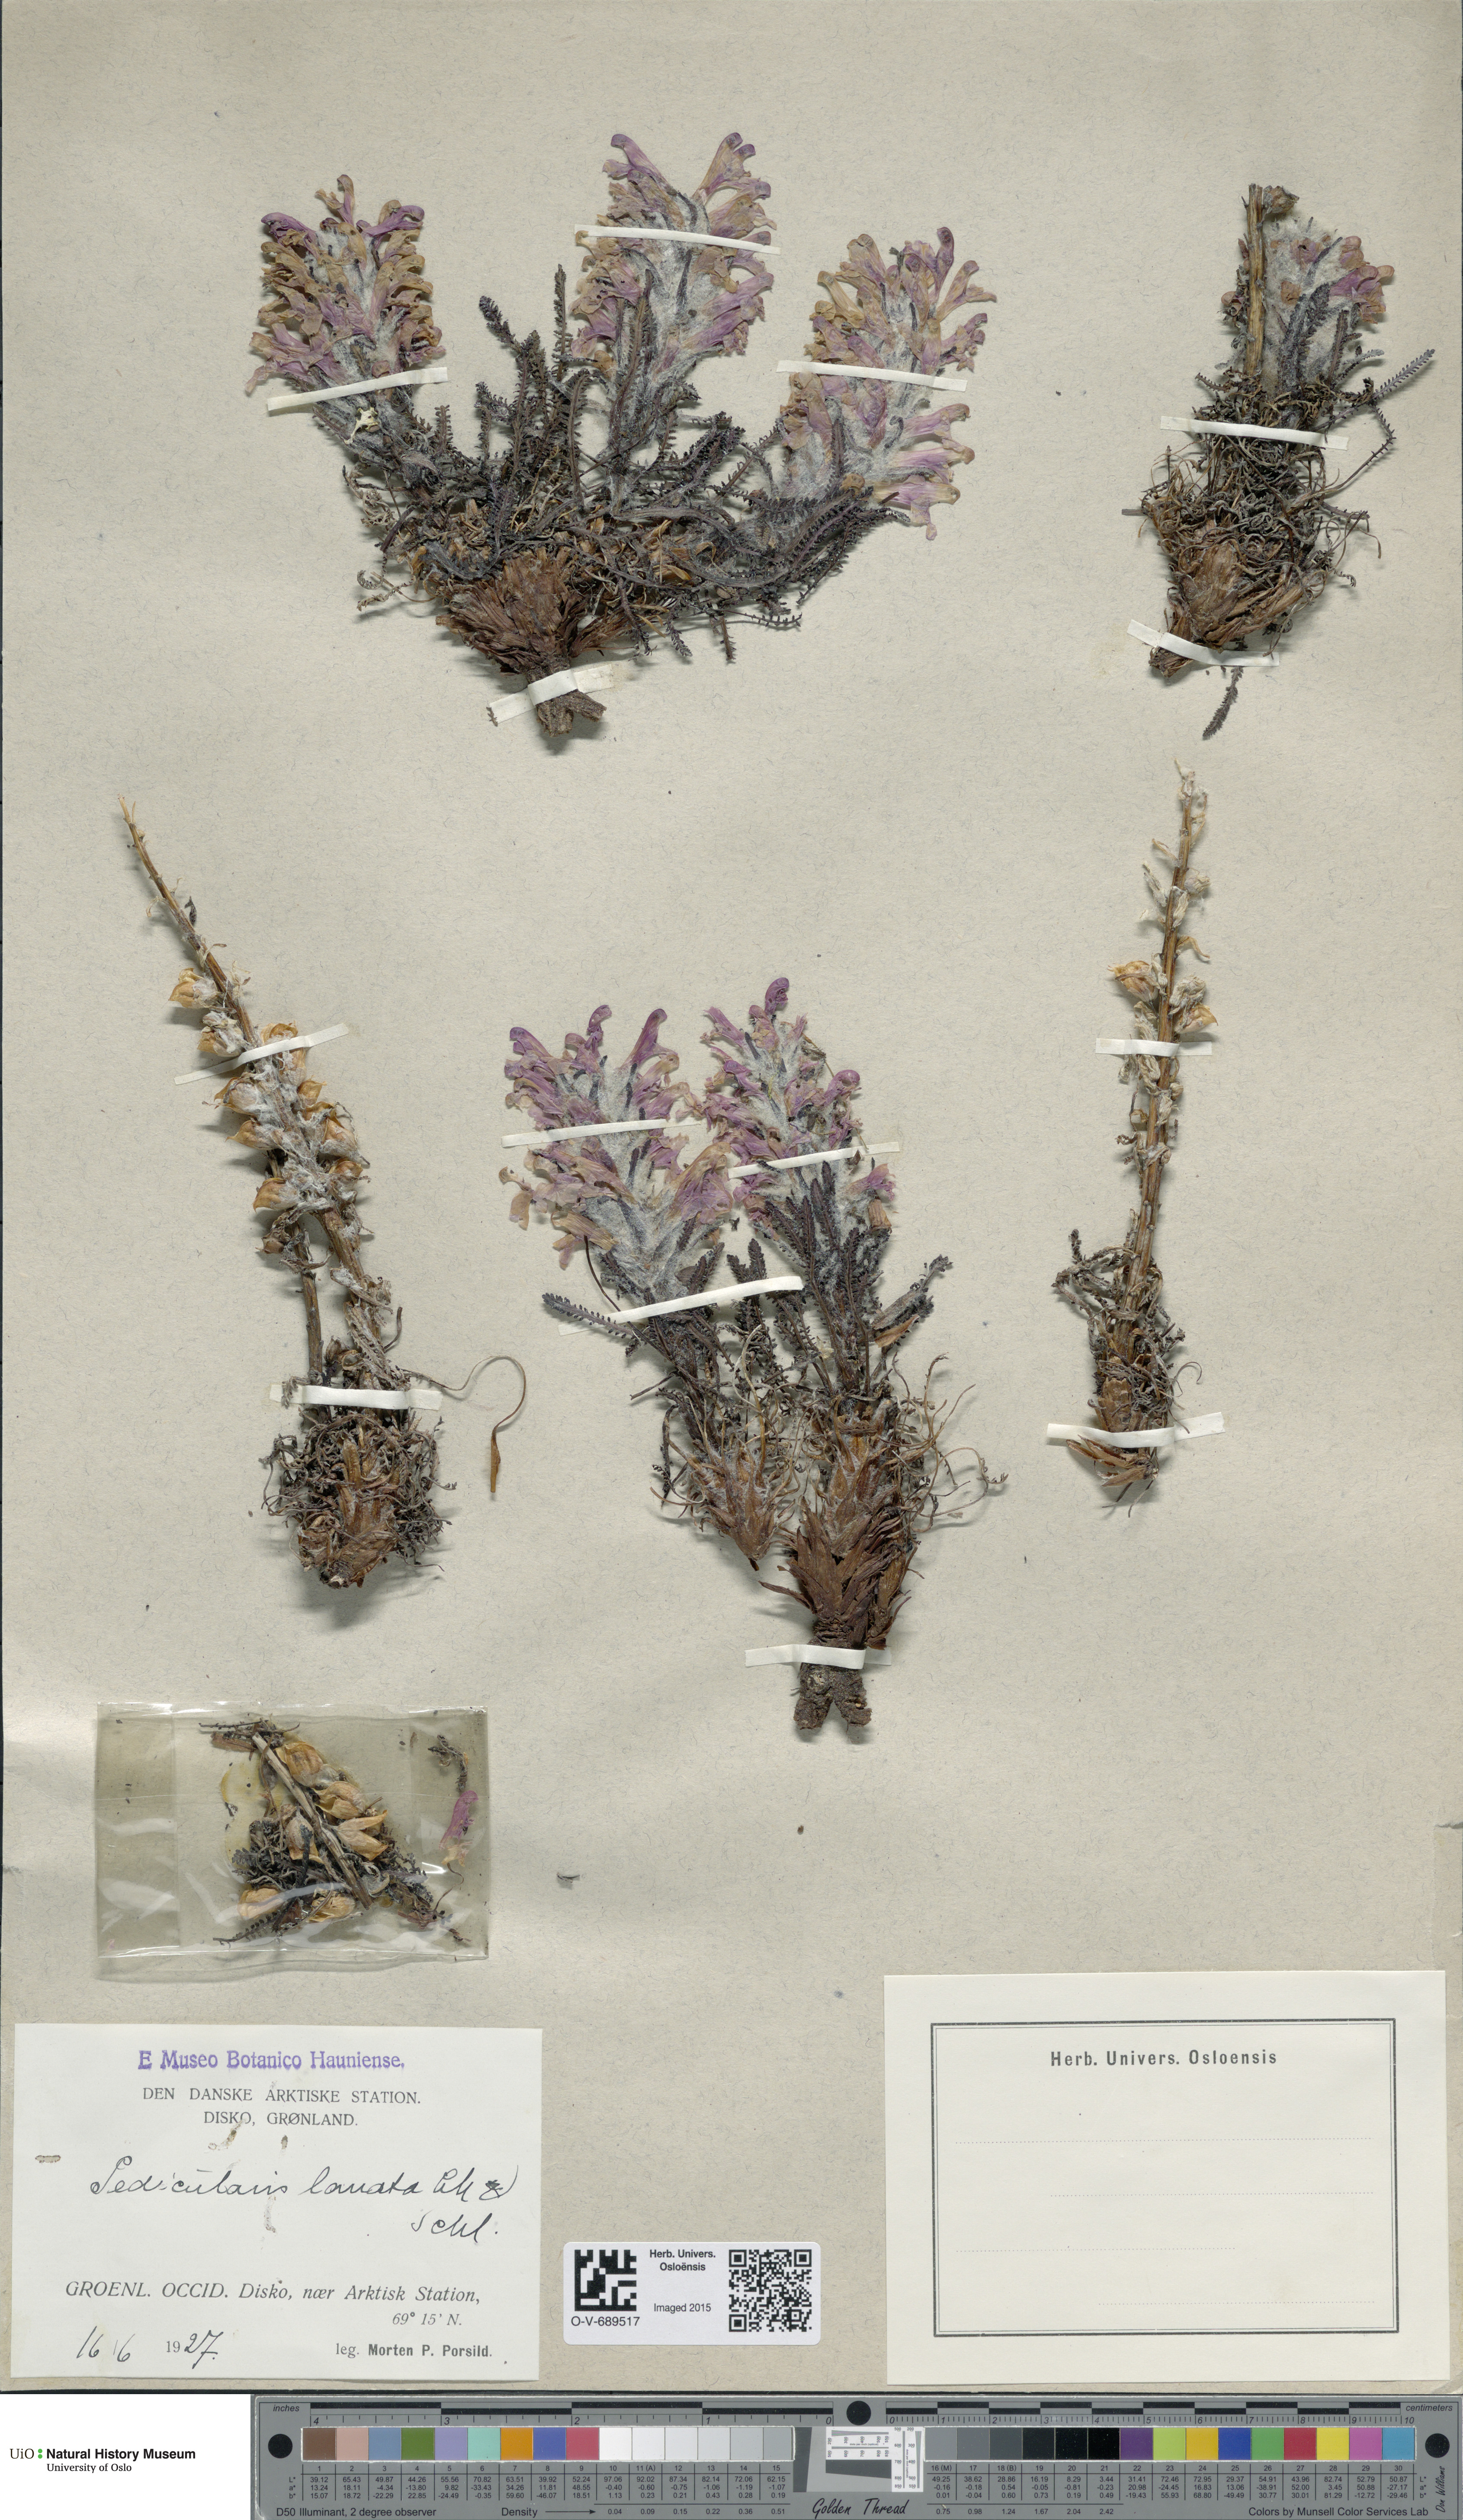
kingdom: Plantae
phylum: Tracheophyta
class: Magnoliopsida
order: Lamiales
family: Orobanchaceae
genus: Pedicularis
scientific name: Pedicularis lanata
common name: Woolly lousewort
